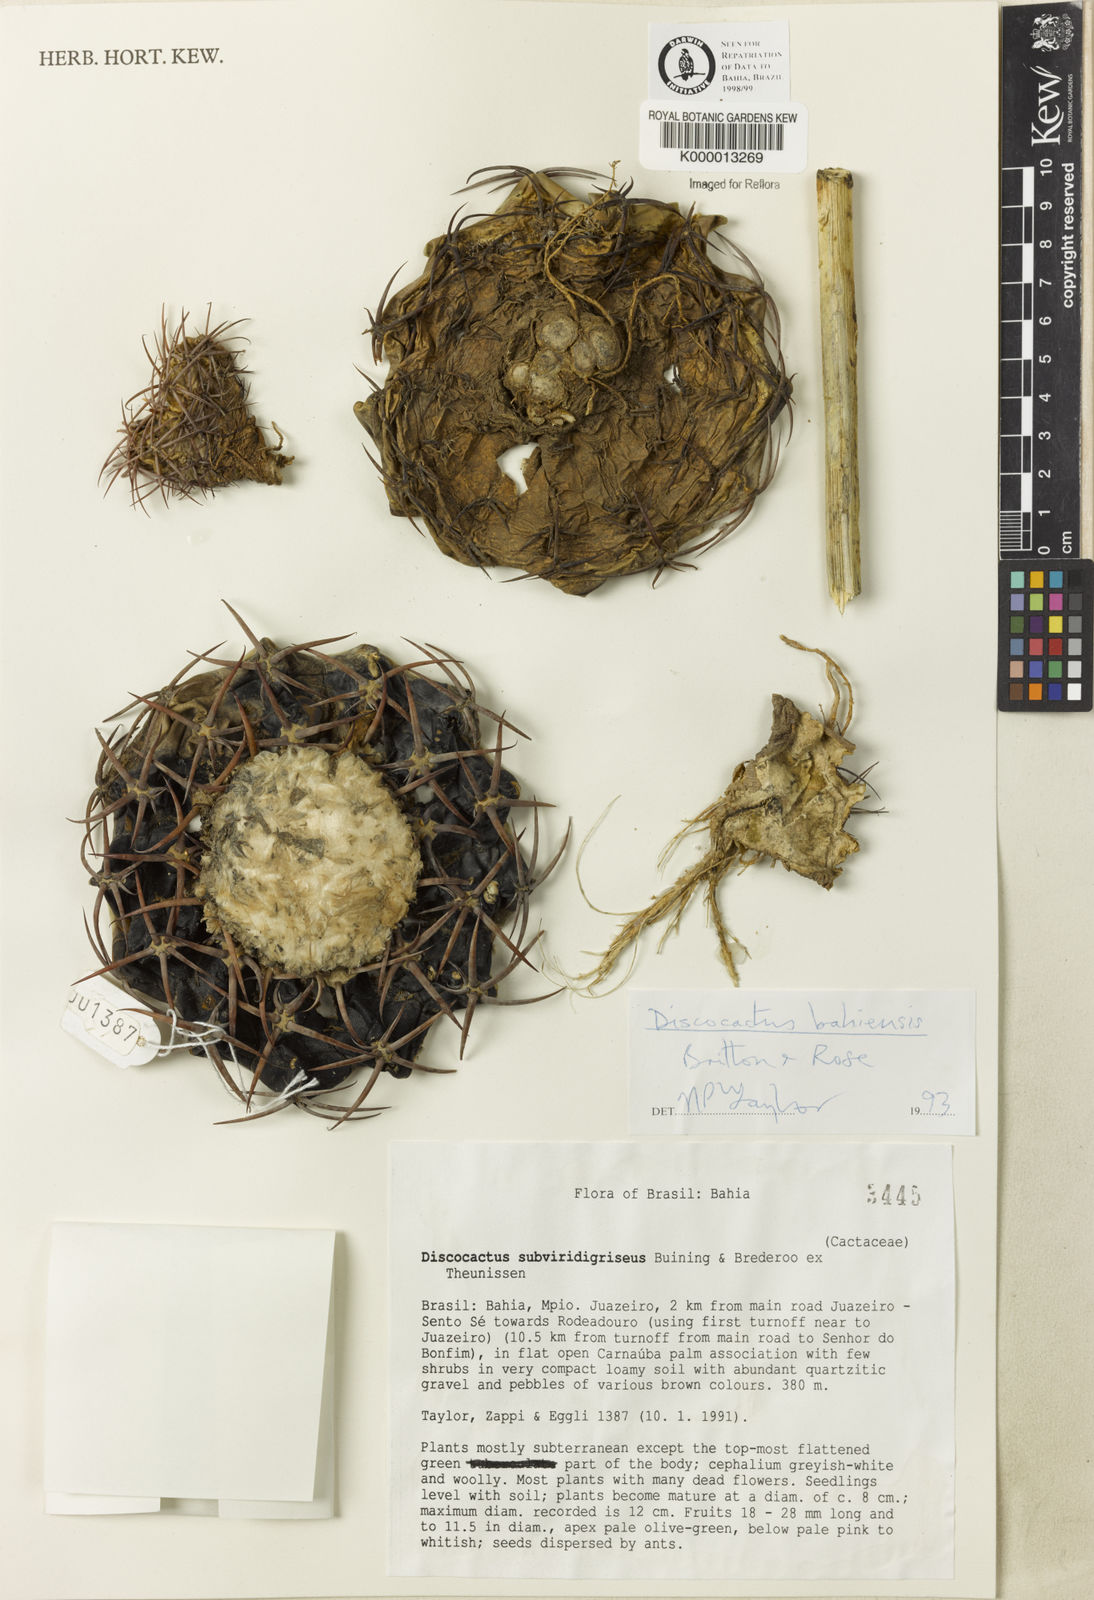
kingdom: Plantae
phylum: Tracheophyta
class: Magnoliopsida
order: Caryophyllales
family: Cactaceae
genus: Discocactus
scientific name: Discocactus bahiensis
